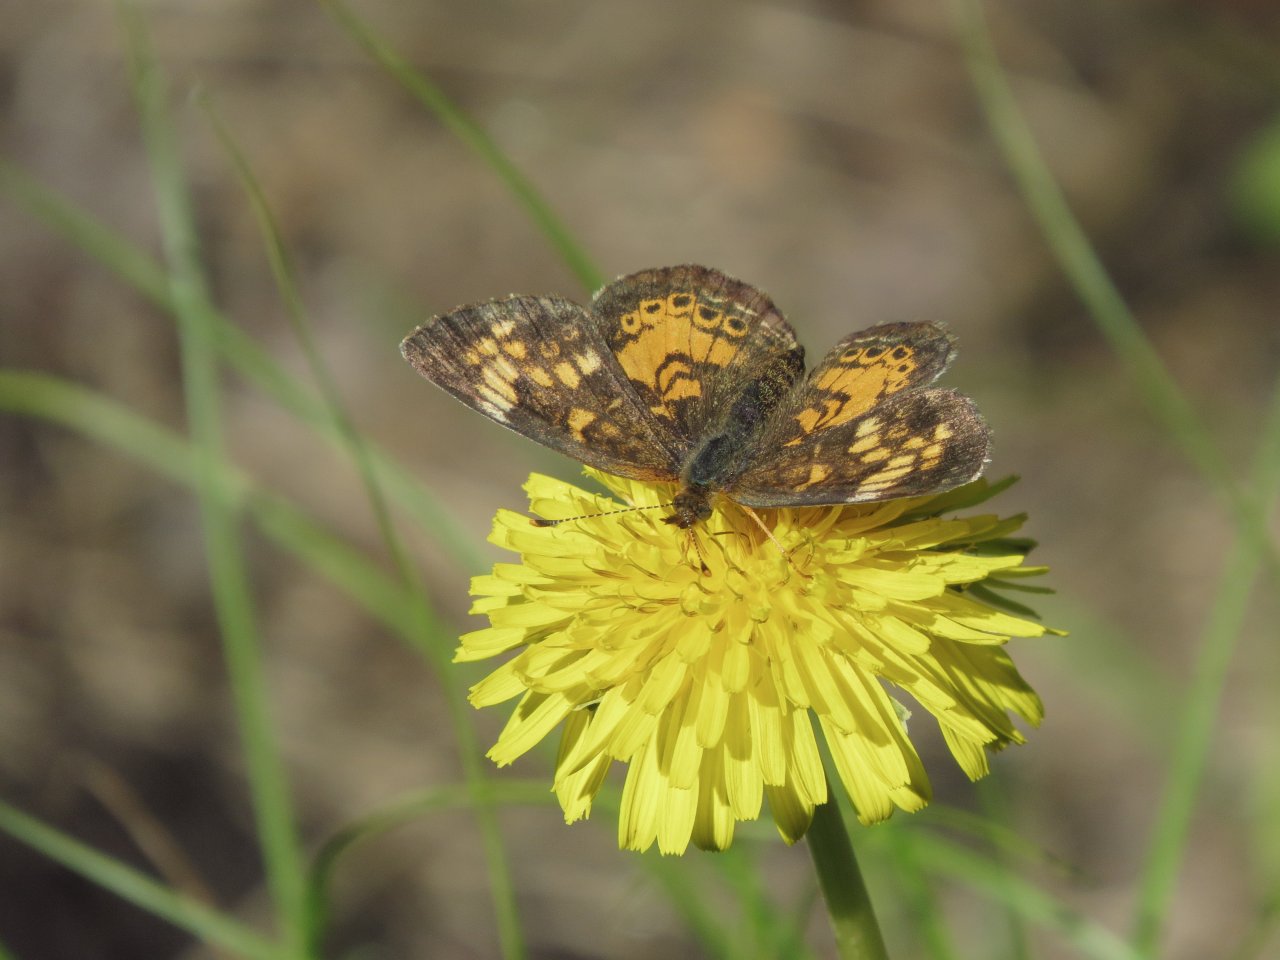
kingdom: Animalia
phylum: Arthropoda
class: Insecta
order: Lepidoptera
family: Nymphalidae
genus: Phyciodes
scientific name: Phyciodes tharos
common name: Northern Crescent
